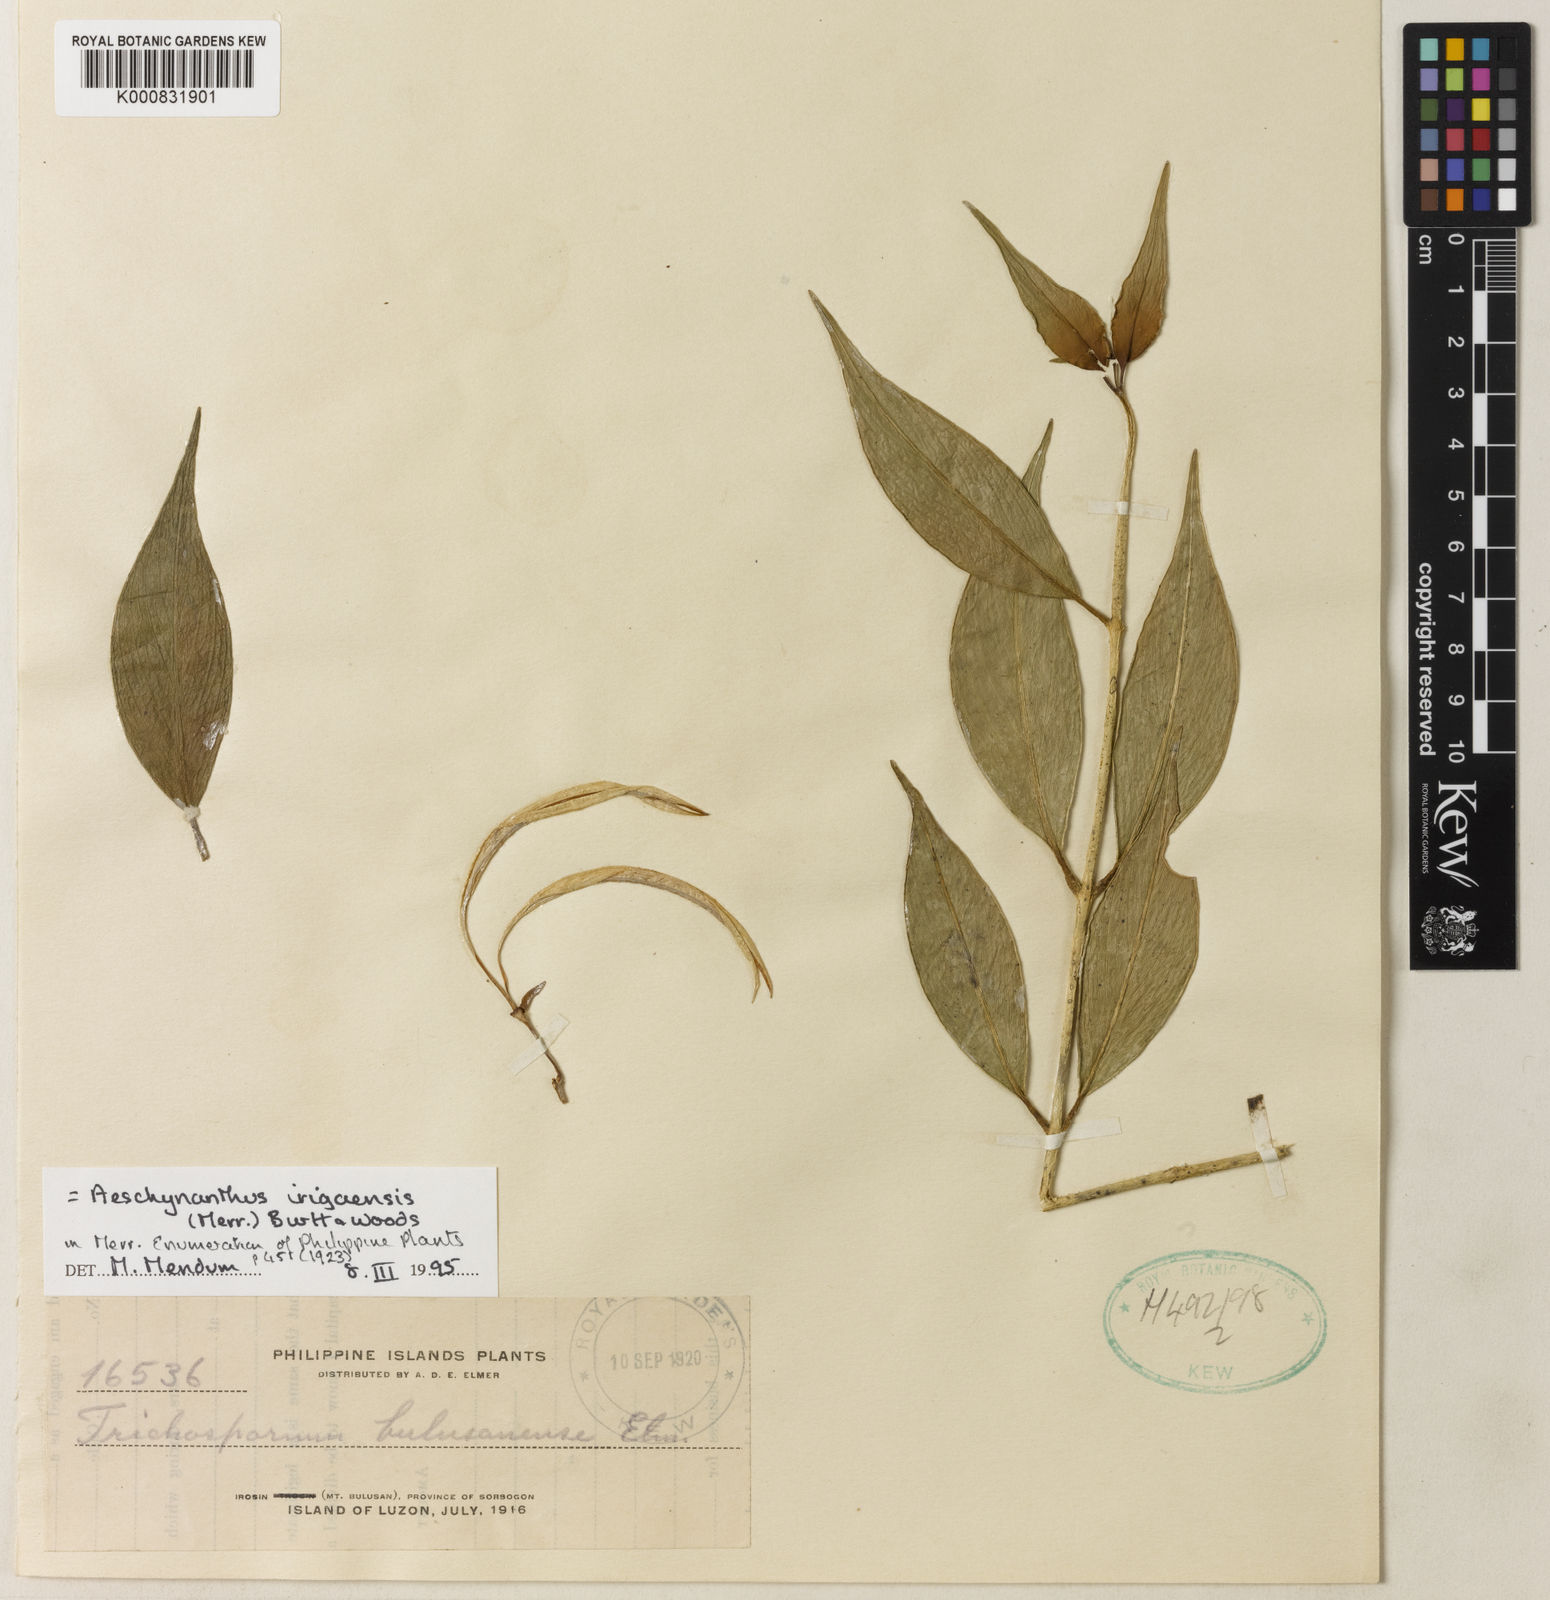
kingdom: Plantae
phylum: Tracheophyta
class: Magnoliopsida
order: Lamiales
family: Gesneriaceae
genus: Aeschynanthus
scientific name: Aeschynanthus irigaensis
